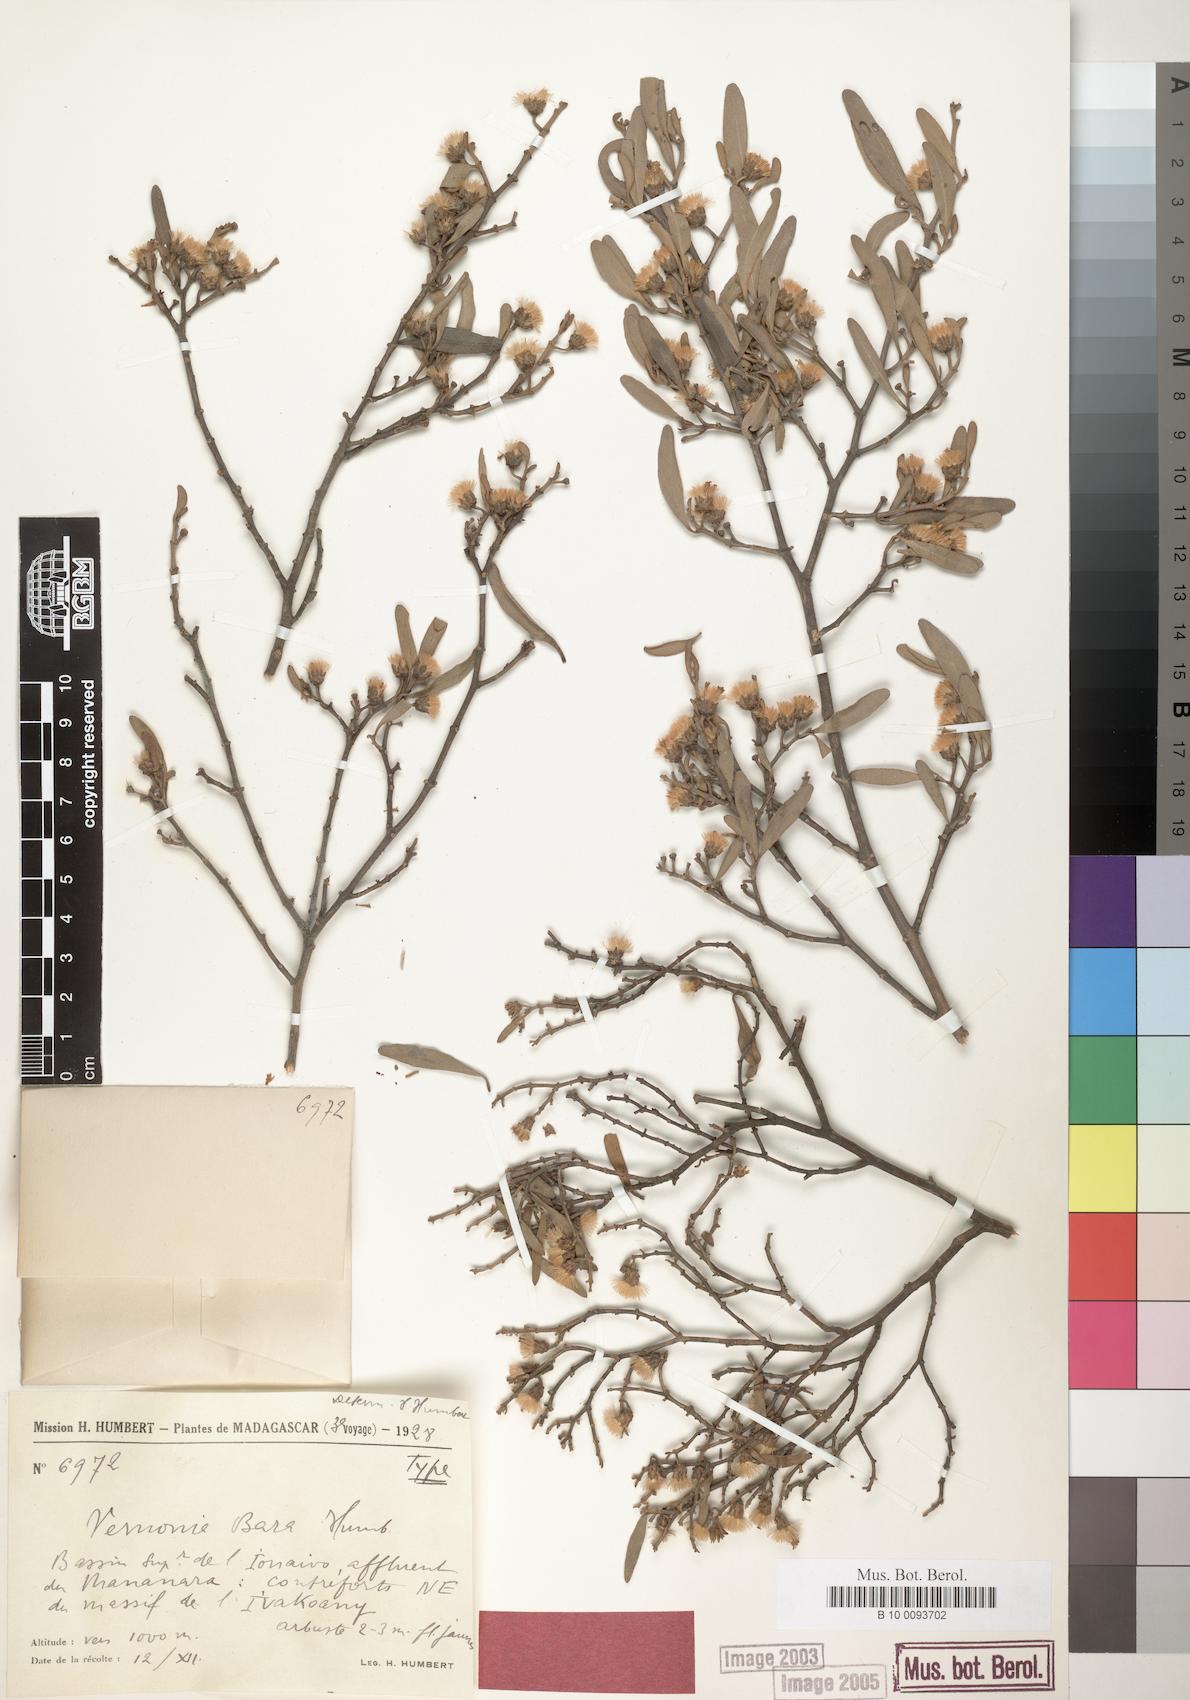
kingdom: Plantae
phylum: Tracheophyta
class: Magnoliopsida
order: Asterales
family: Asteraceae
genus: Distephanus
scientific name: Distephanus bara
